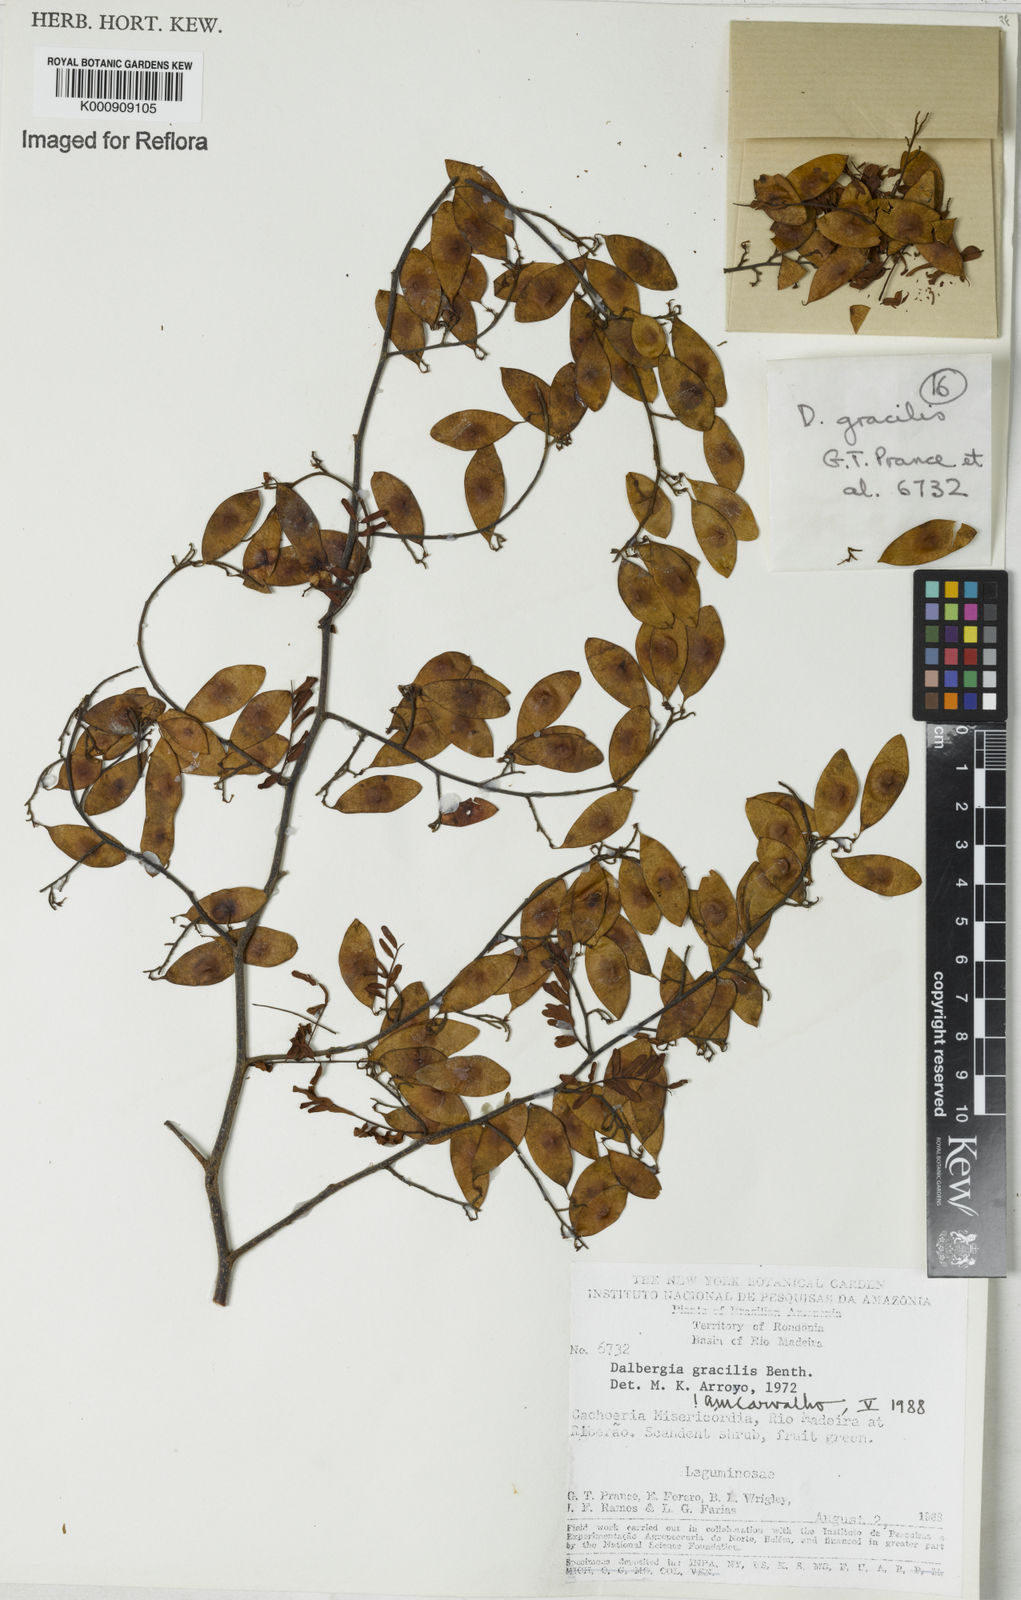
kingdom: Plantae
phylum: Tracheophyta
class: Magnoliopsida
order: Fabales
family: Fabaceae
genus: Dalbergia
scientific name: Dalbergia gracilis
